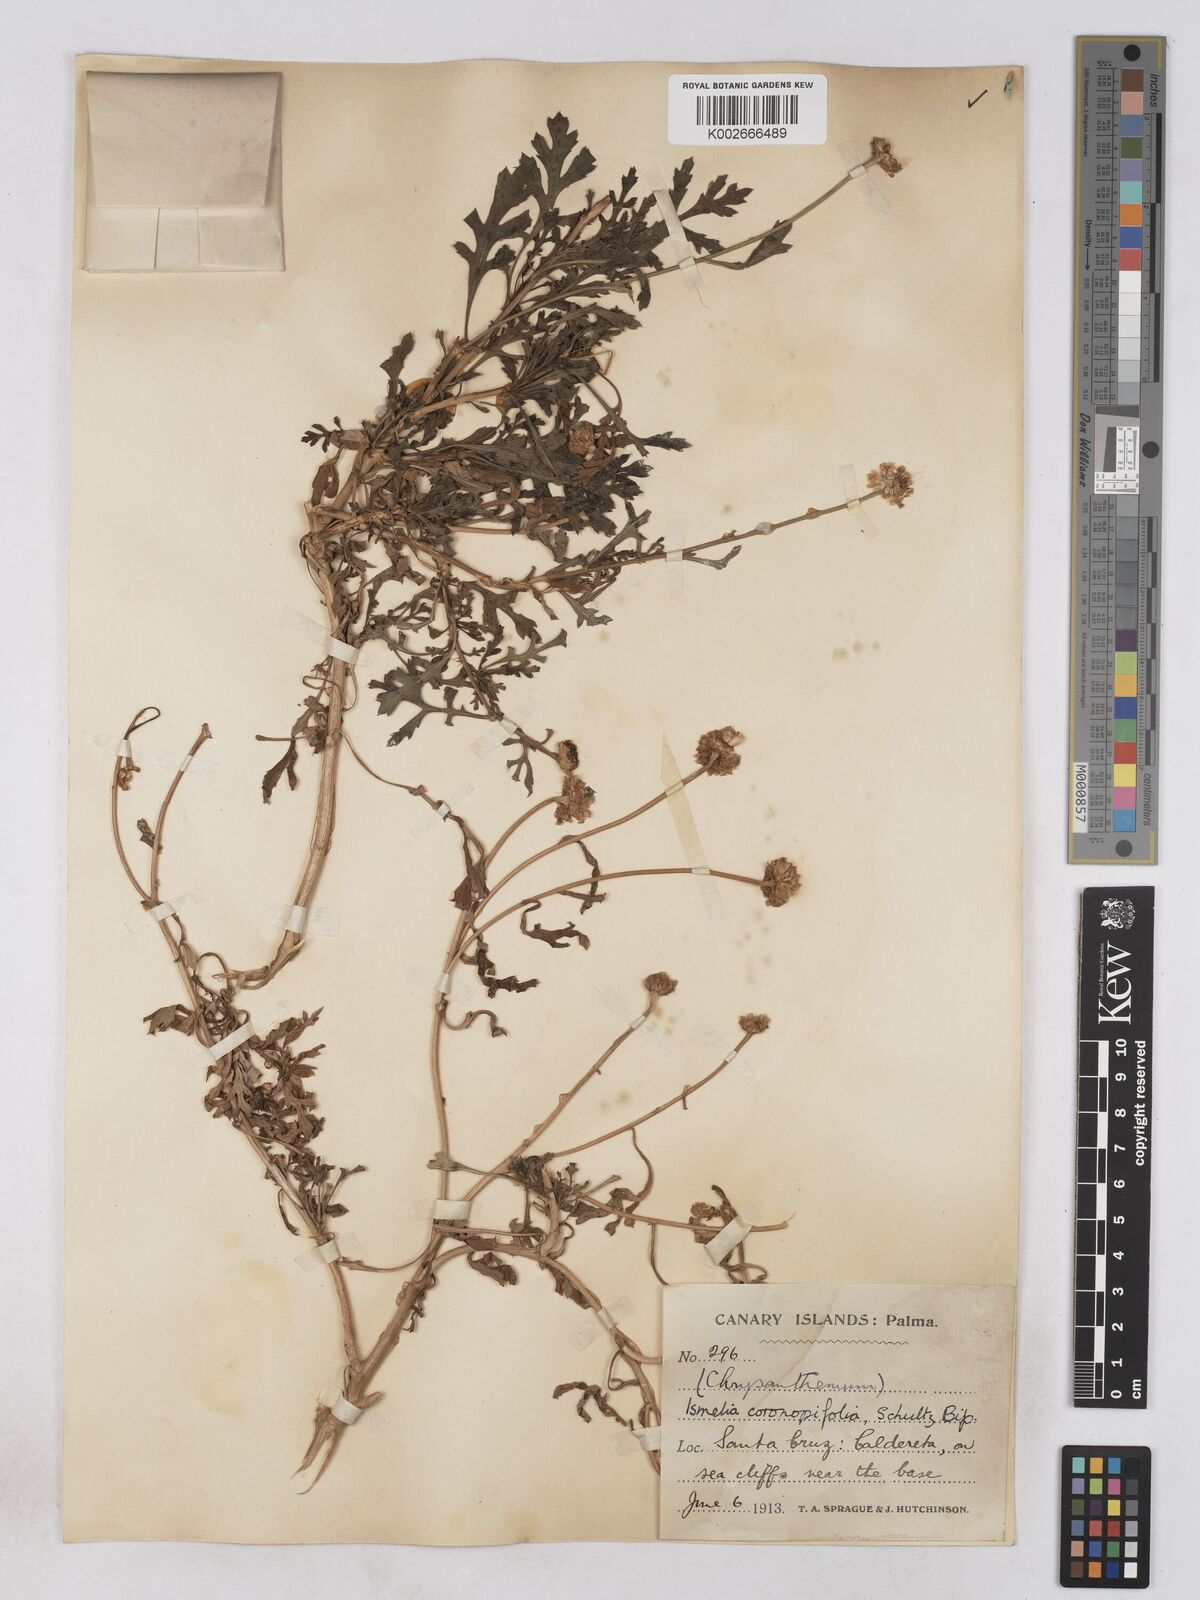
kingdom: Plantae
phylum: Tracheophyta
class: Magnoliopsida
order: Asterales
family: Asteraceae
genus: Argyranthemum
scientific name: Argyranthemum webbii
